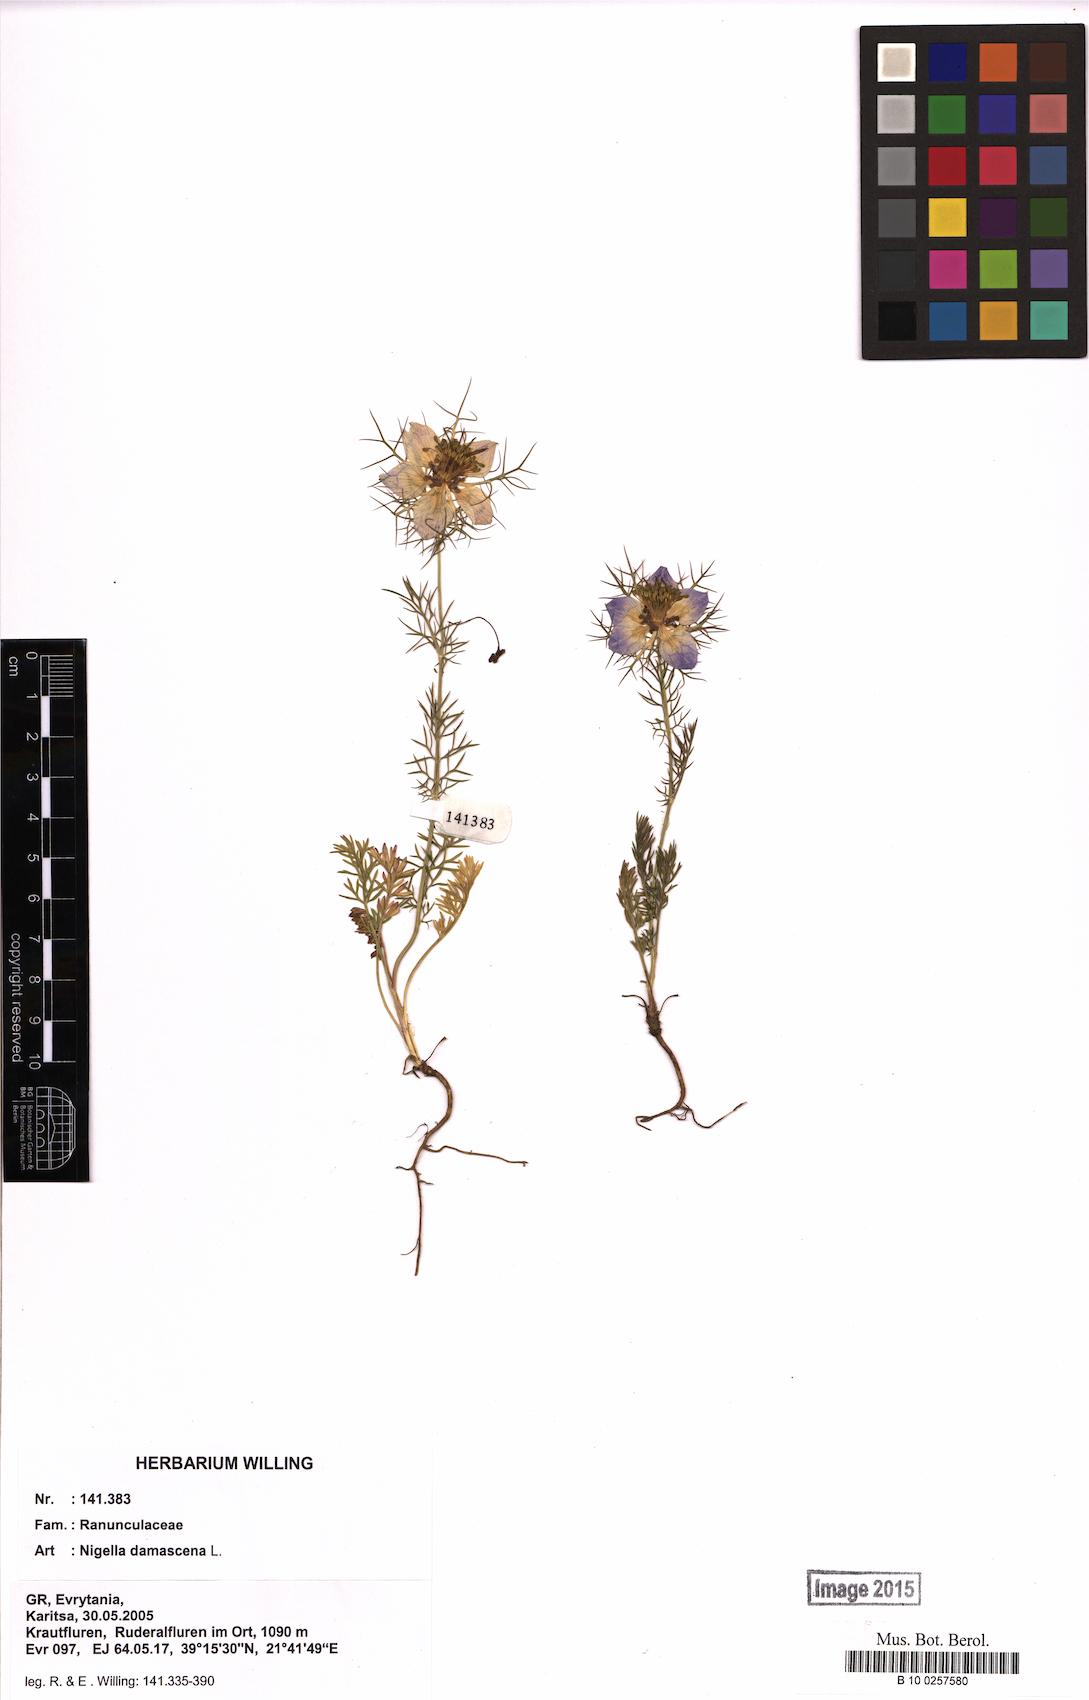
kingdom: Plantae
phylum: Tracheophyta
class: Magnoliopsida
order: Ranunculales
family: Ranunculaceae
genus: Nigella
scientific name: Nigella damascena
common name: Love-in-a-mist
